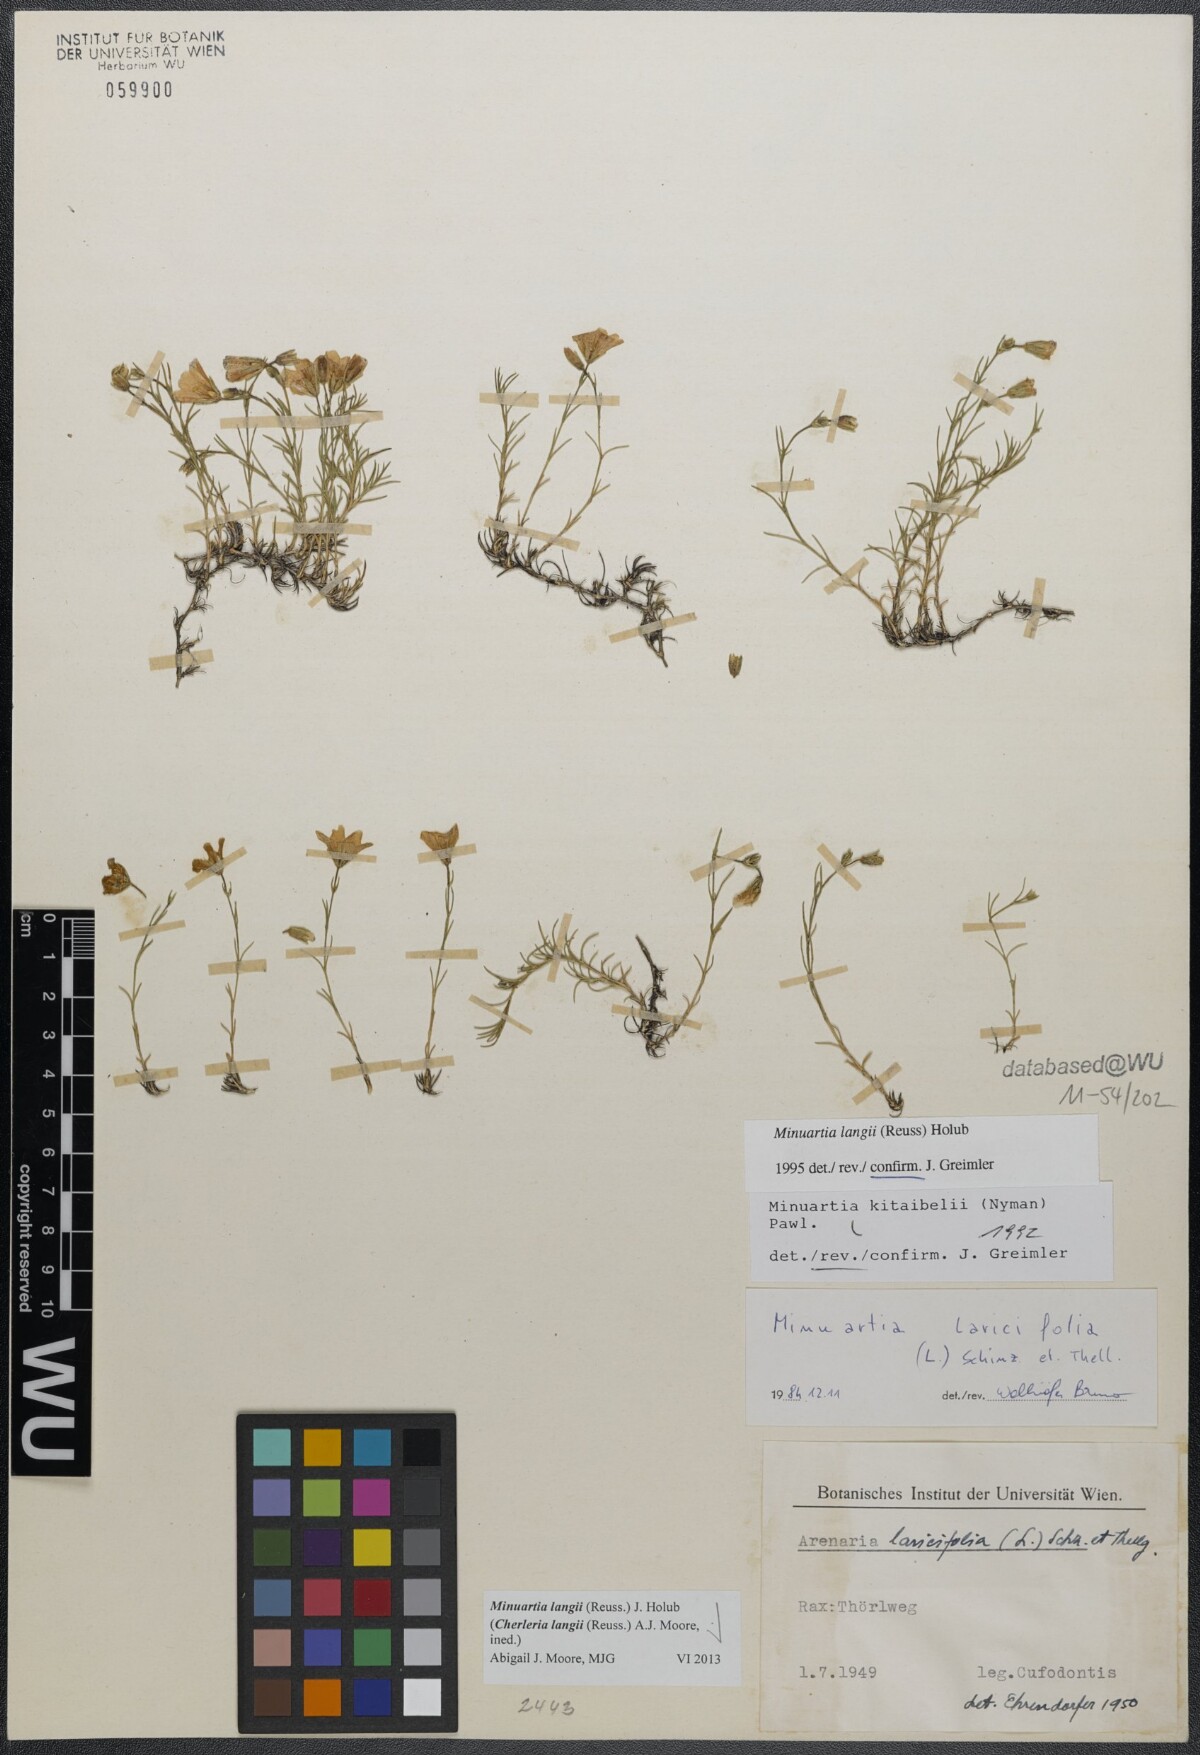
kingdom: Plantae
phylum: Tracheophyta
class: Magnoliopsida
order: Caryophyllales
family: Caryophyllaceae
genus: Cherleria
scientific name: Cherleria langii
